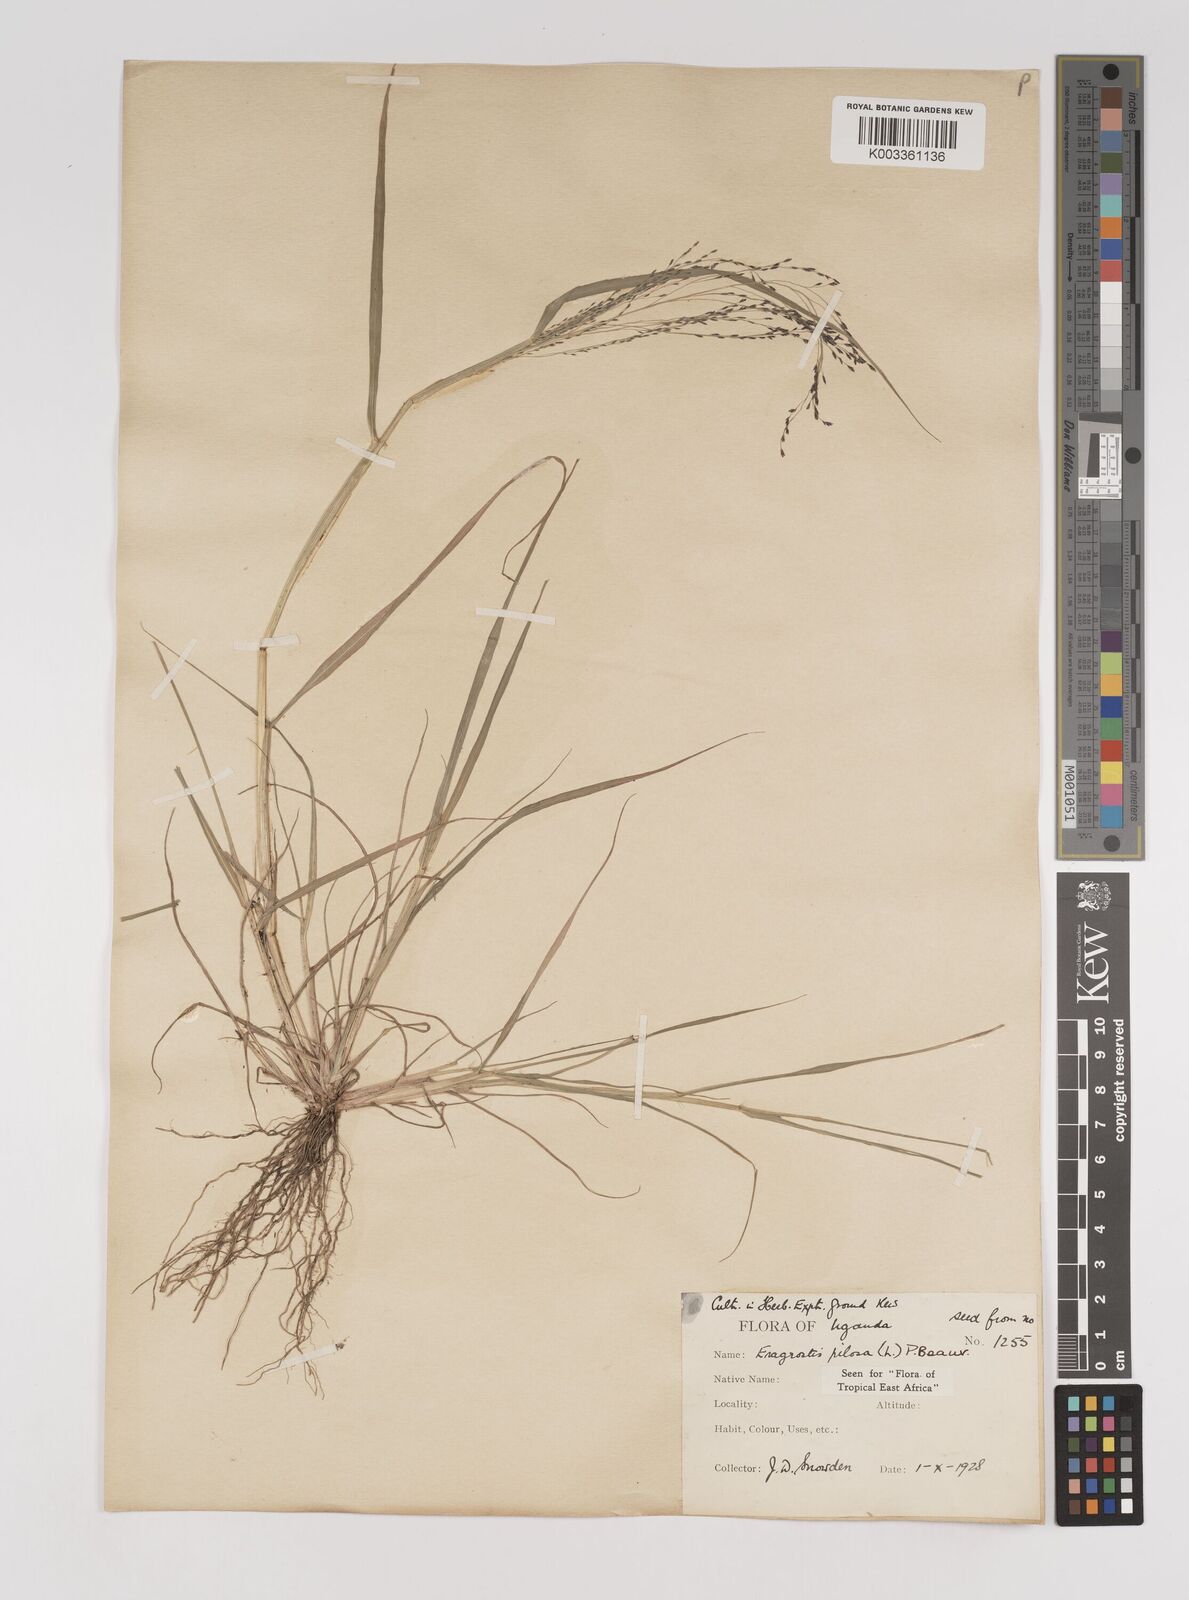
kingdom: Plantae
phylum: Tracheophyta
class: Liliopsida
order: Poales
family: Poaceae
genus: Eragrostis
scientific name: Eragrostis pilosa
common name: Indian lovegrass
